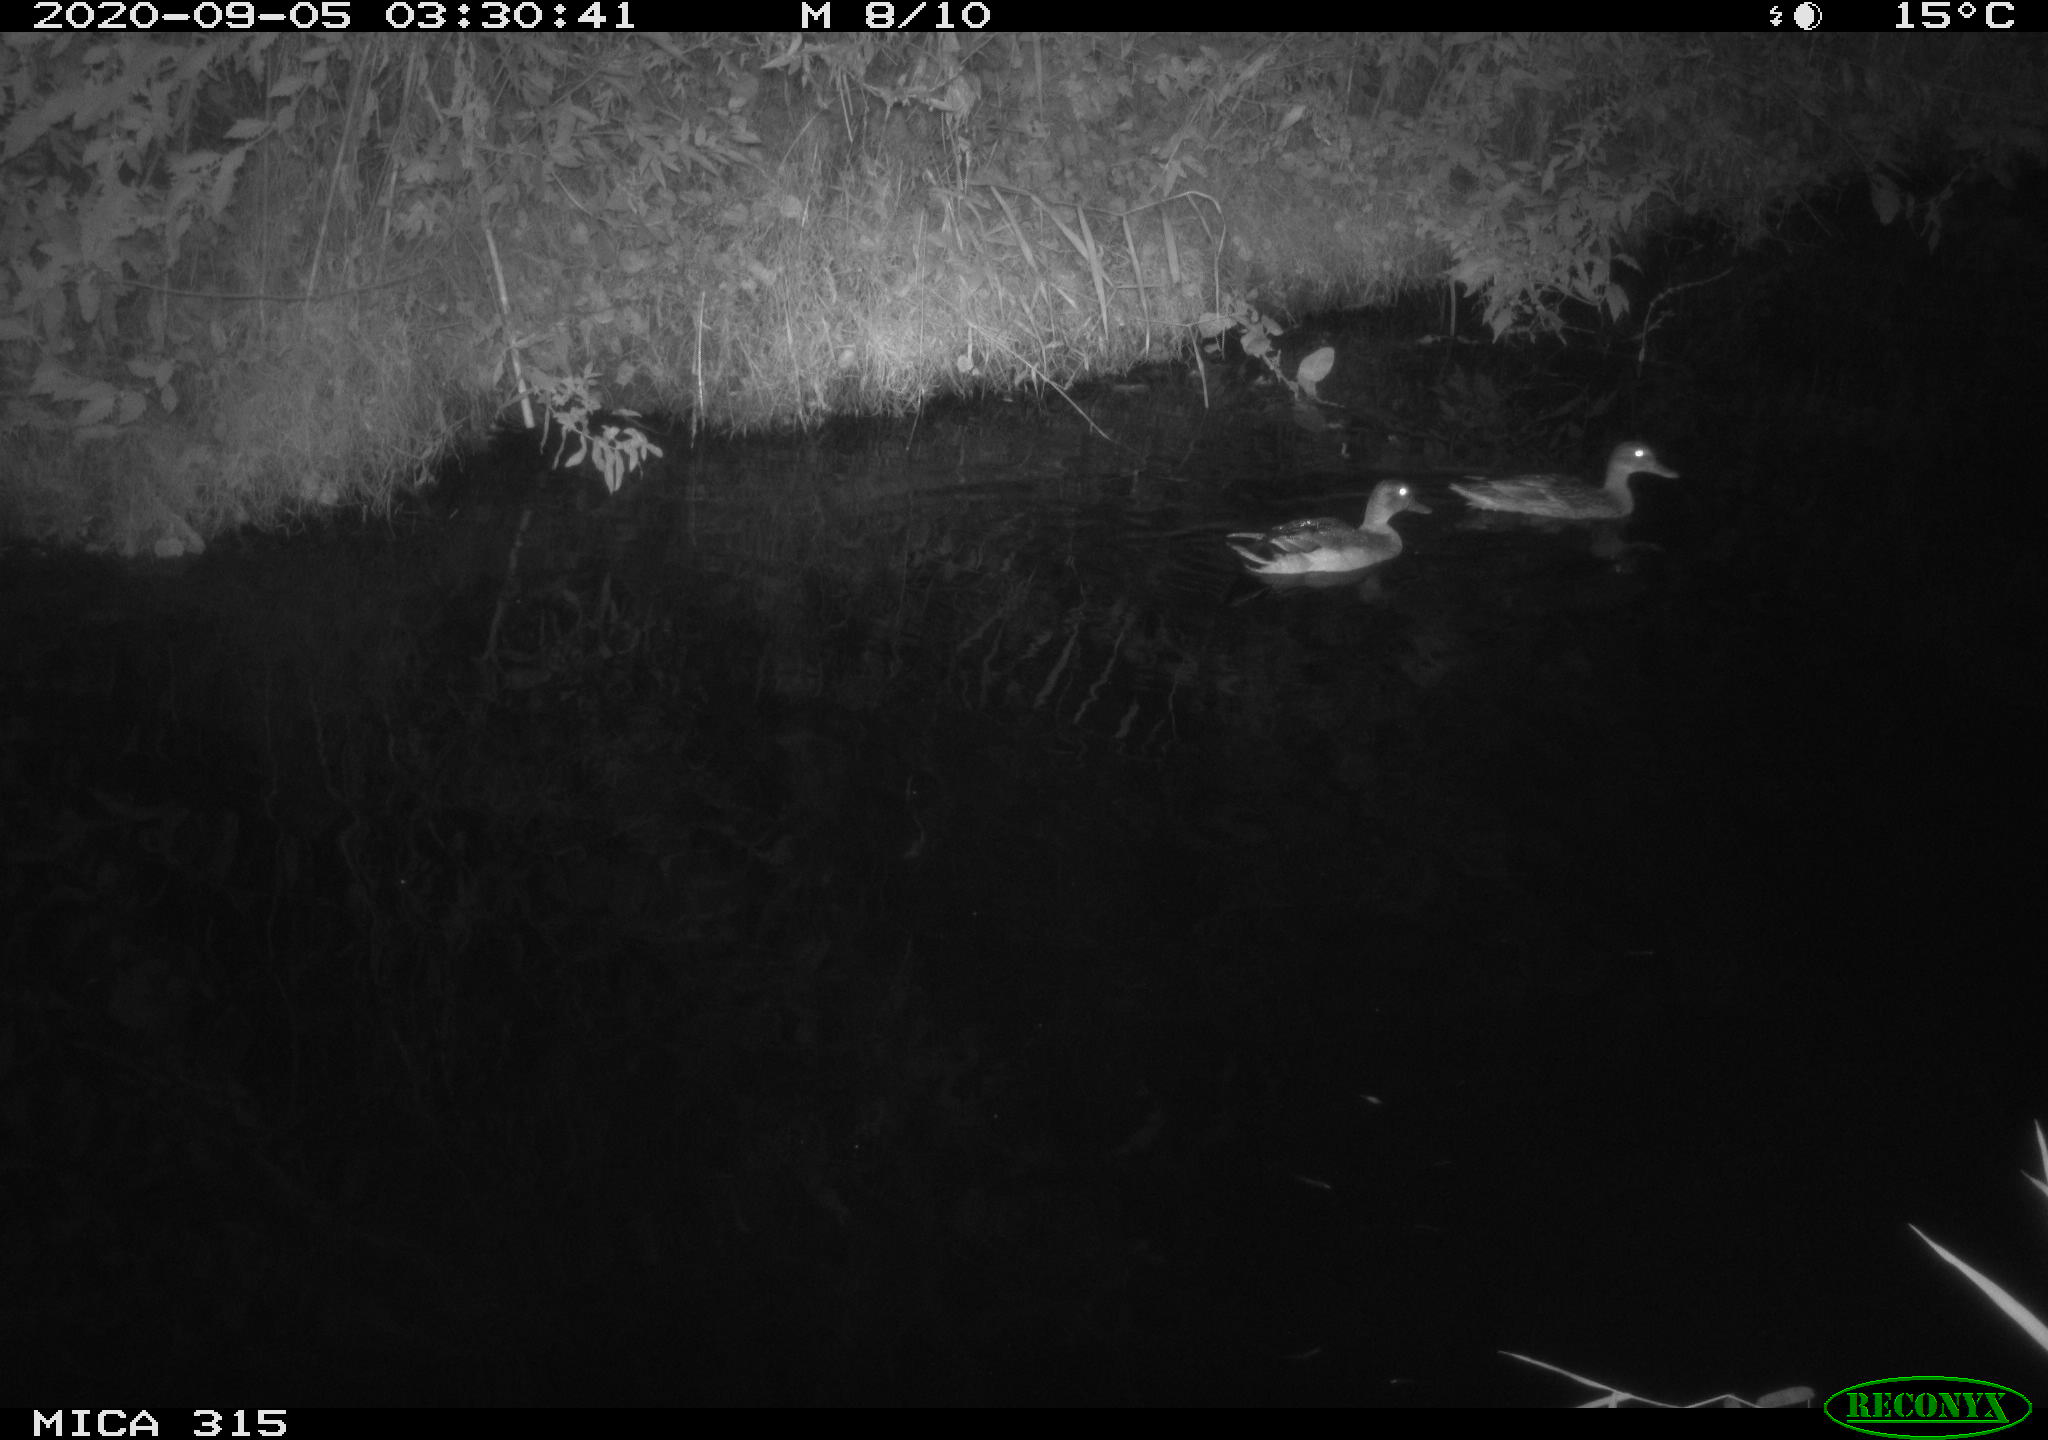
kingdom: Animalia
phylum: Chordata
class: Aves
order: Anseriformes
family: Anatidae
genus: Anas
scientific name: Anas platyrhynchos
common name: Mallard
